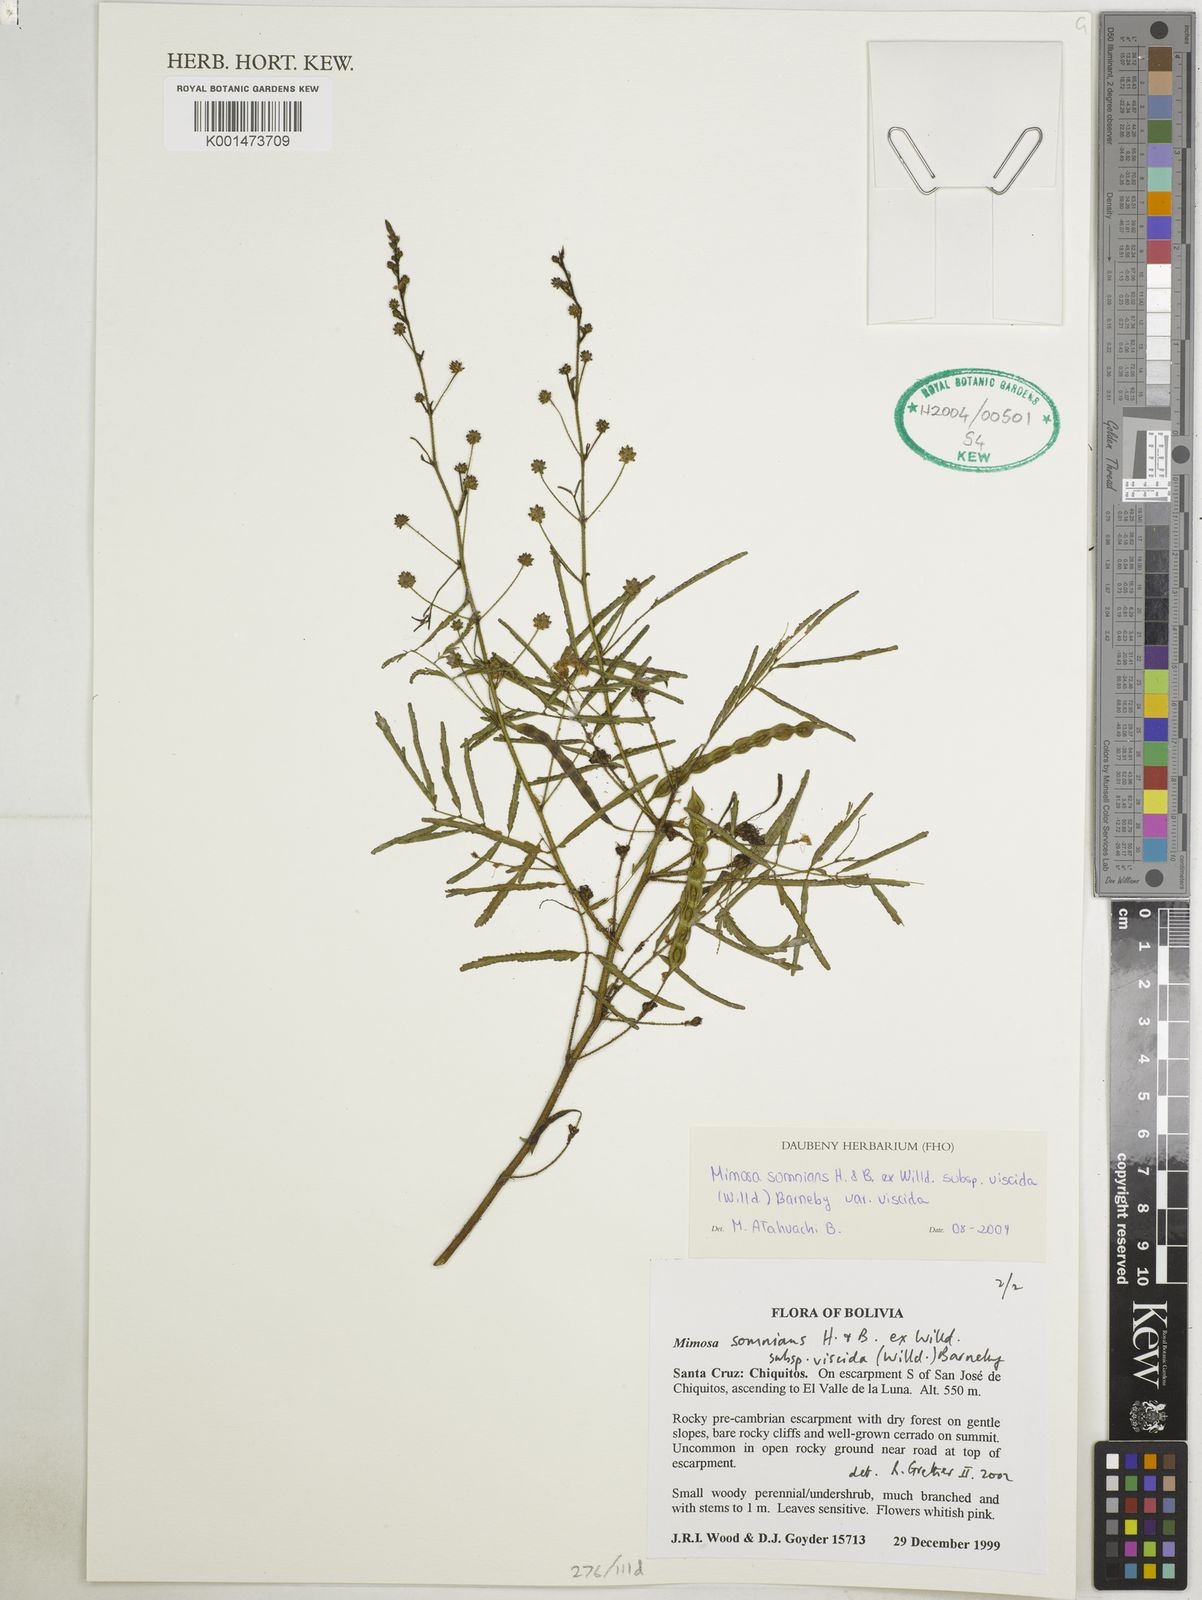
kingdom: Plantae
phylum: Tracheophyta
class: Magnoliopsida
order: Fabales
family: Fabaceae
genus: Mimosa
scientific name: Mimosa somnians
